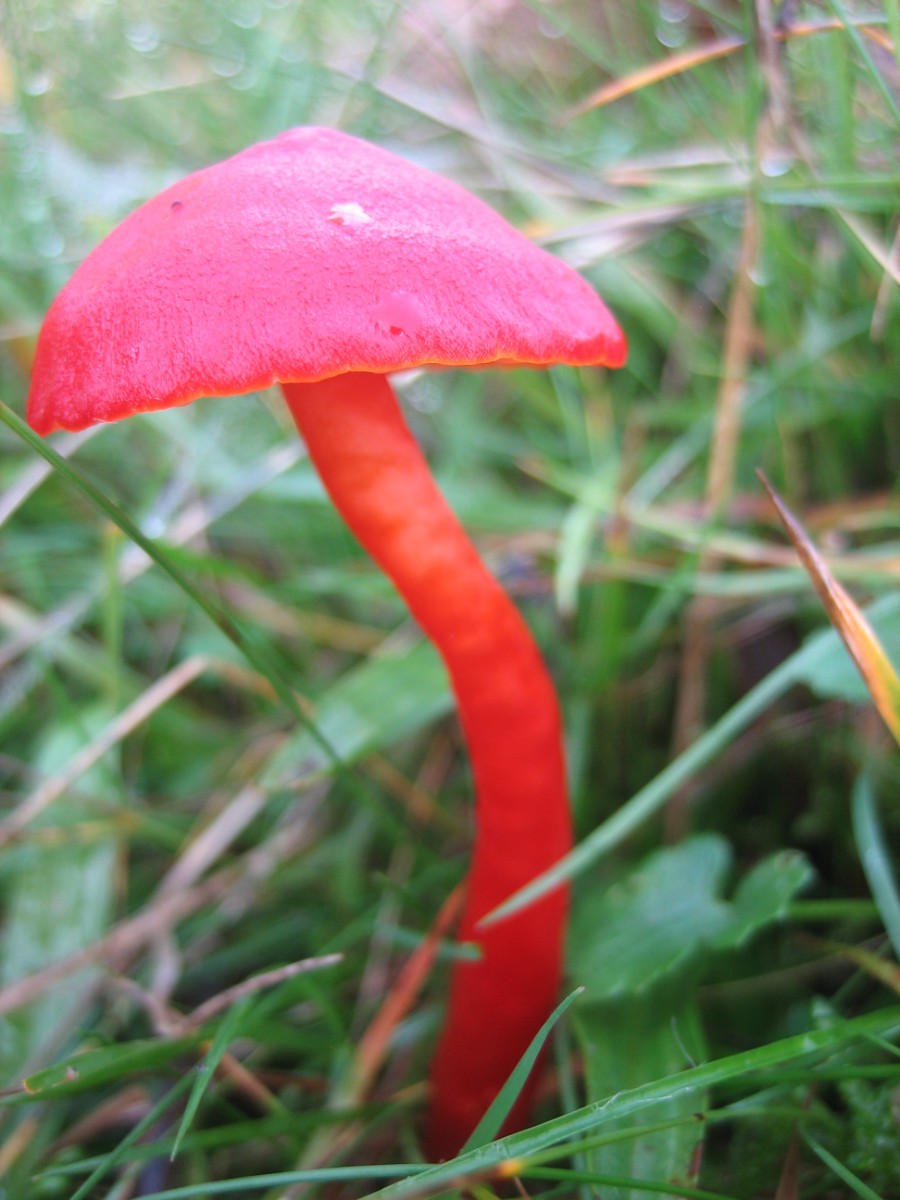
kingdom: Fungi
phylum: Basidiomycota
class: Agaricomycetes
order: Agaricales
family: Hygrophoraceae
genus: Hygrocybe
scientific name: Hygrocybe coccinea
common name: cinnober-vokshat
